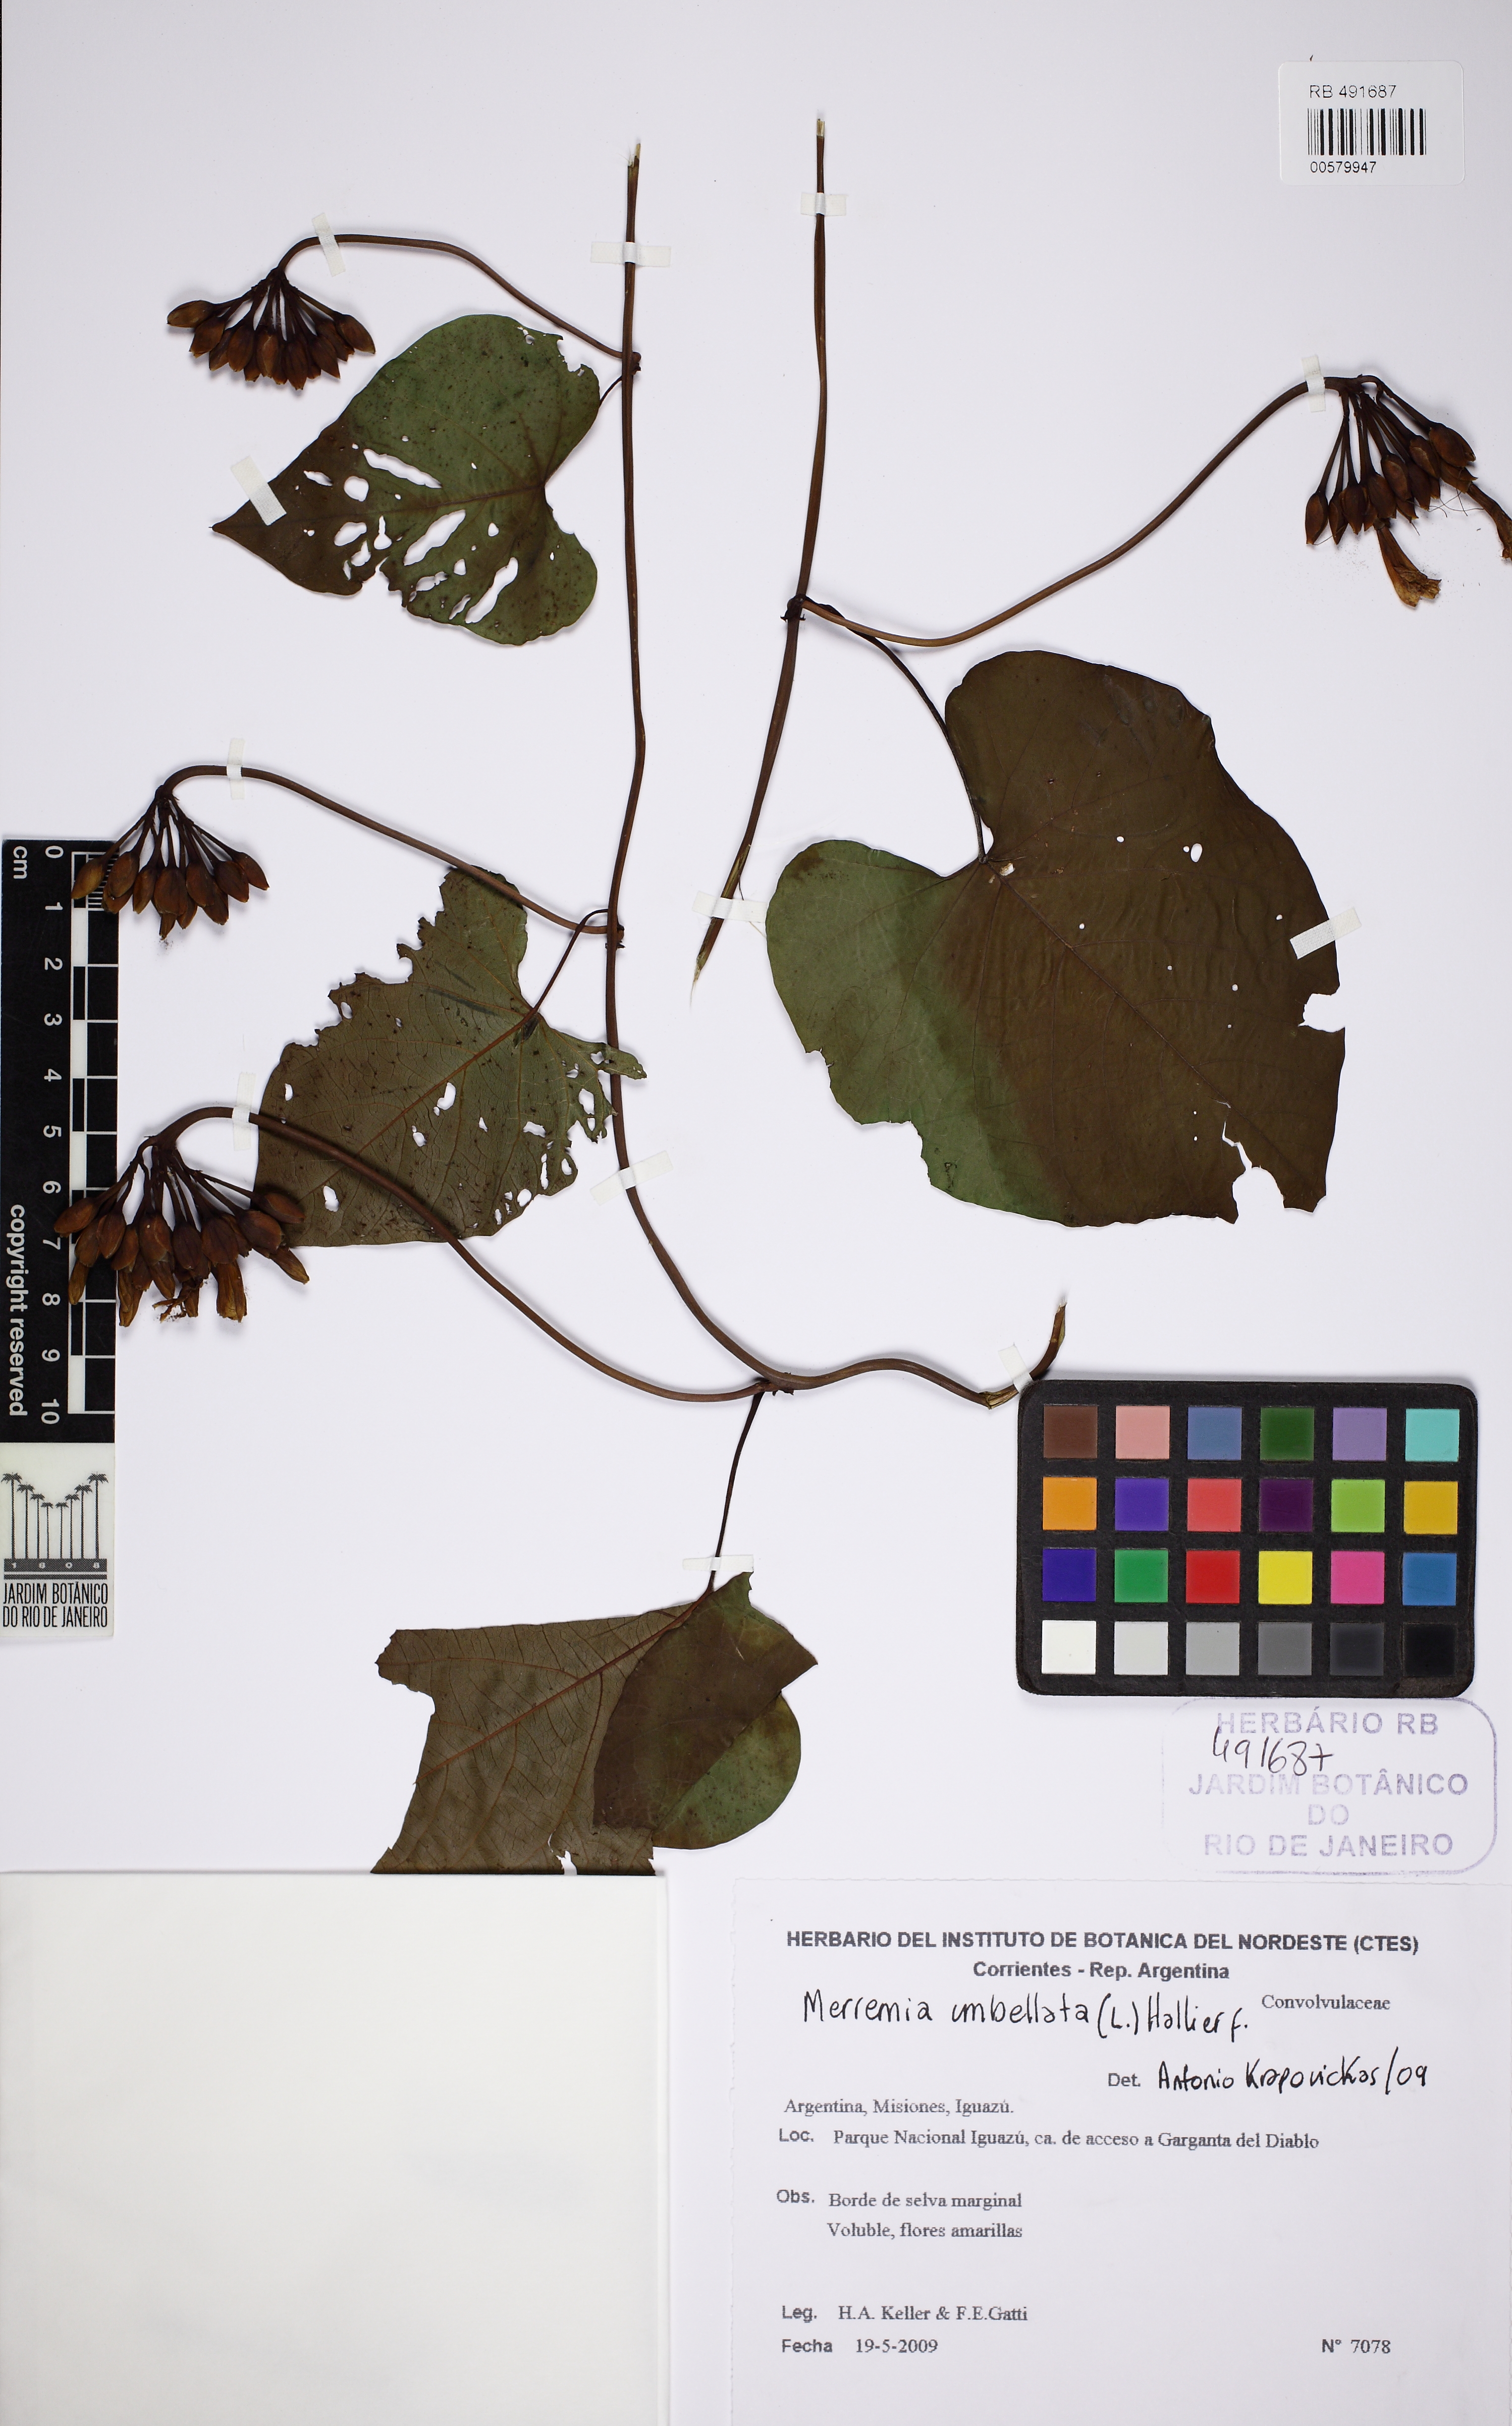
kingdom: Plantae
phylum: Tracheophyta
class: Magnoliopsida
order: Solanales
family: Convolvulaceae
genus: Camonea
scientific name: Camonea umbellata
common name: Hogvine
